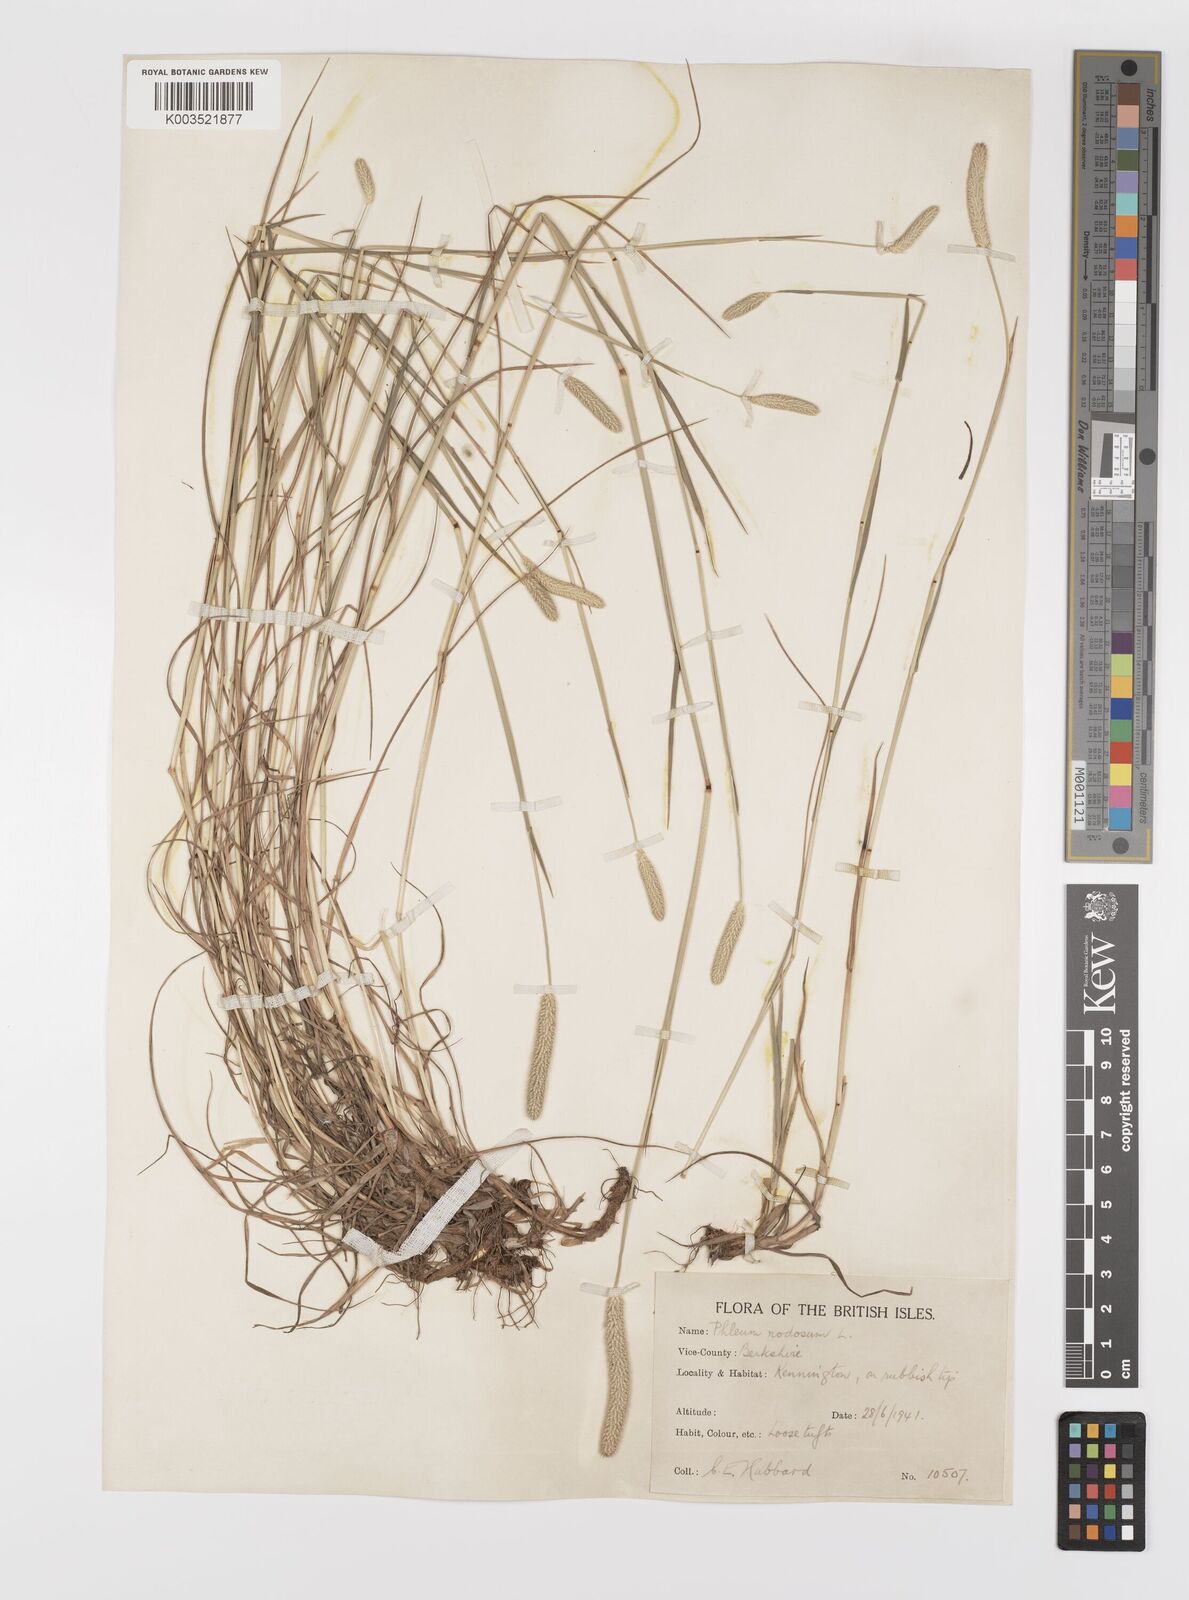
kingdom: Plantae
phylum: Tracheophyta
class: Liliopsida
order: Poales
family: Poaceae
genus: Phleum
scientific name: Phleum bertolonii
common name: Smaller cat's-tail
